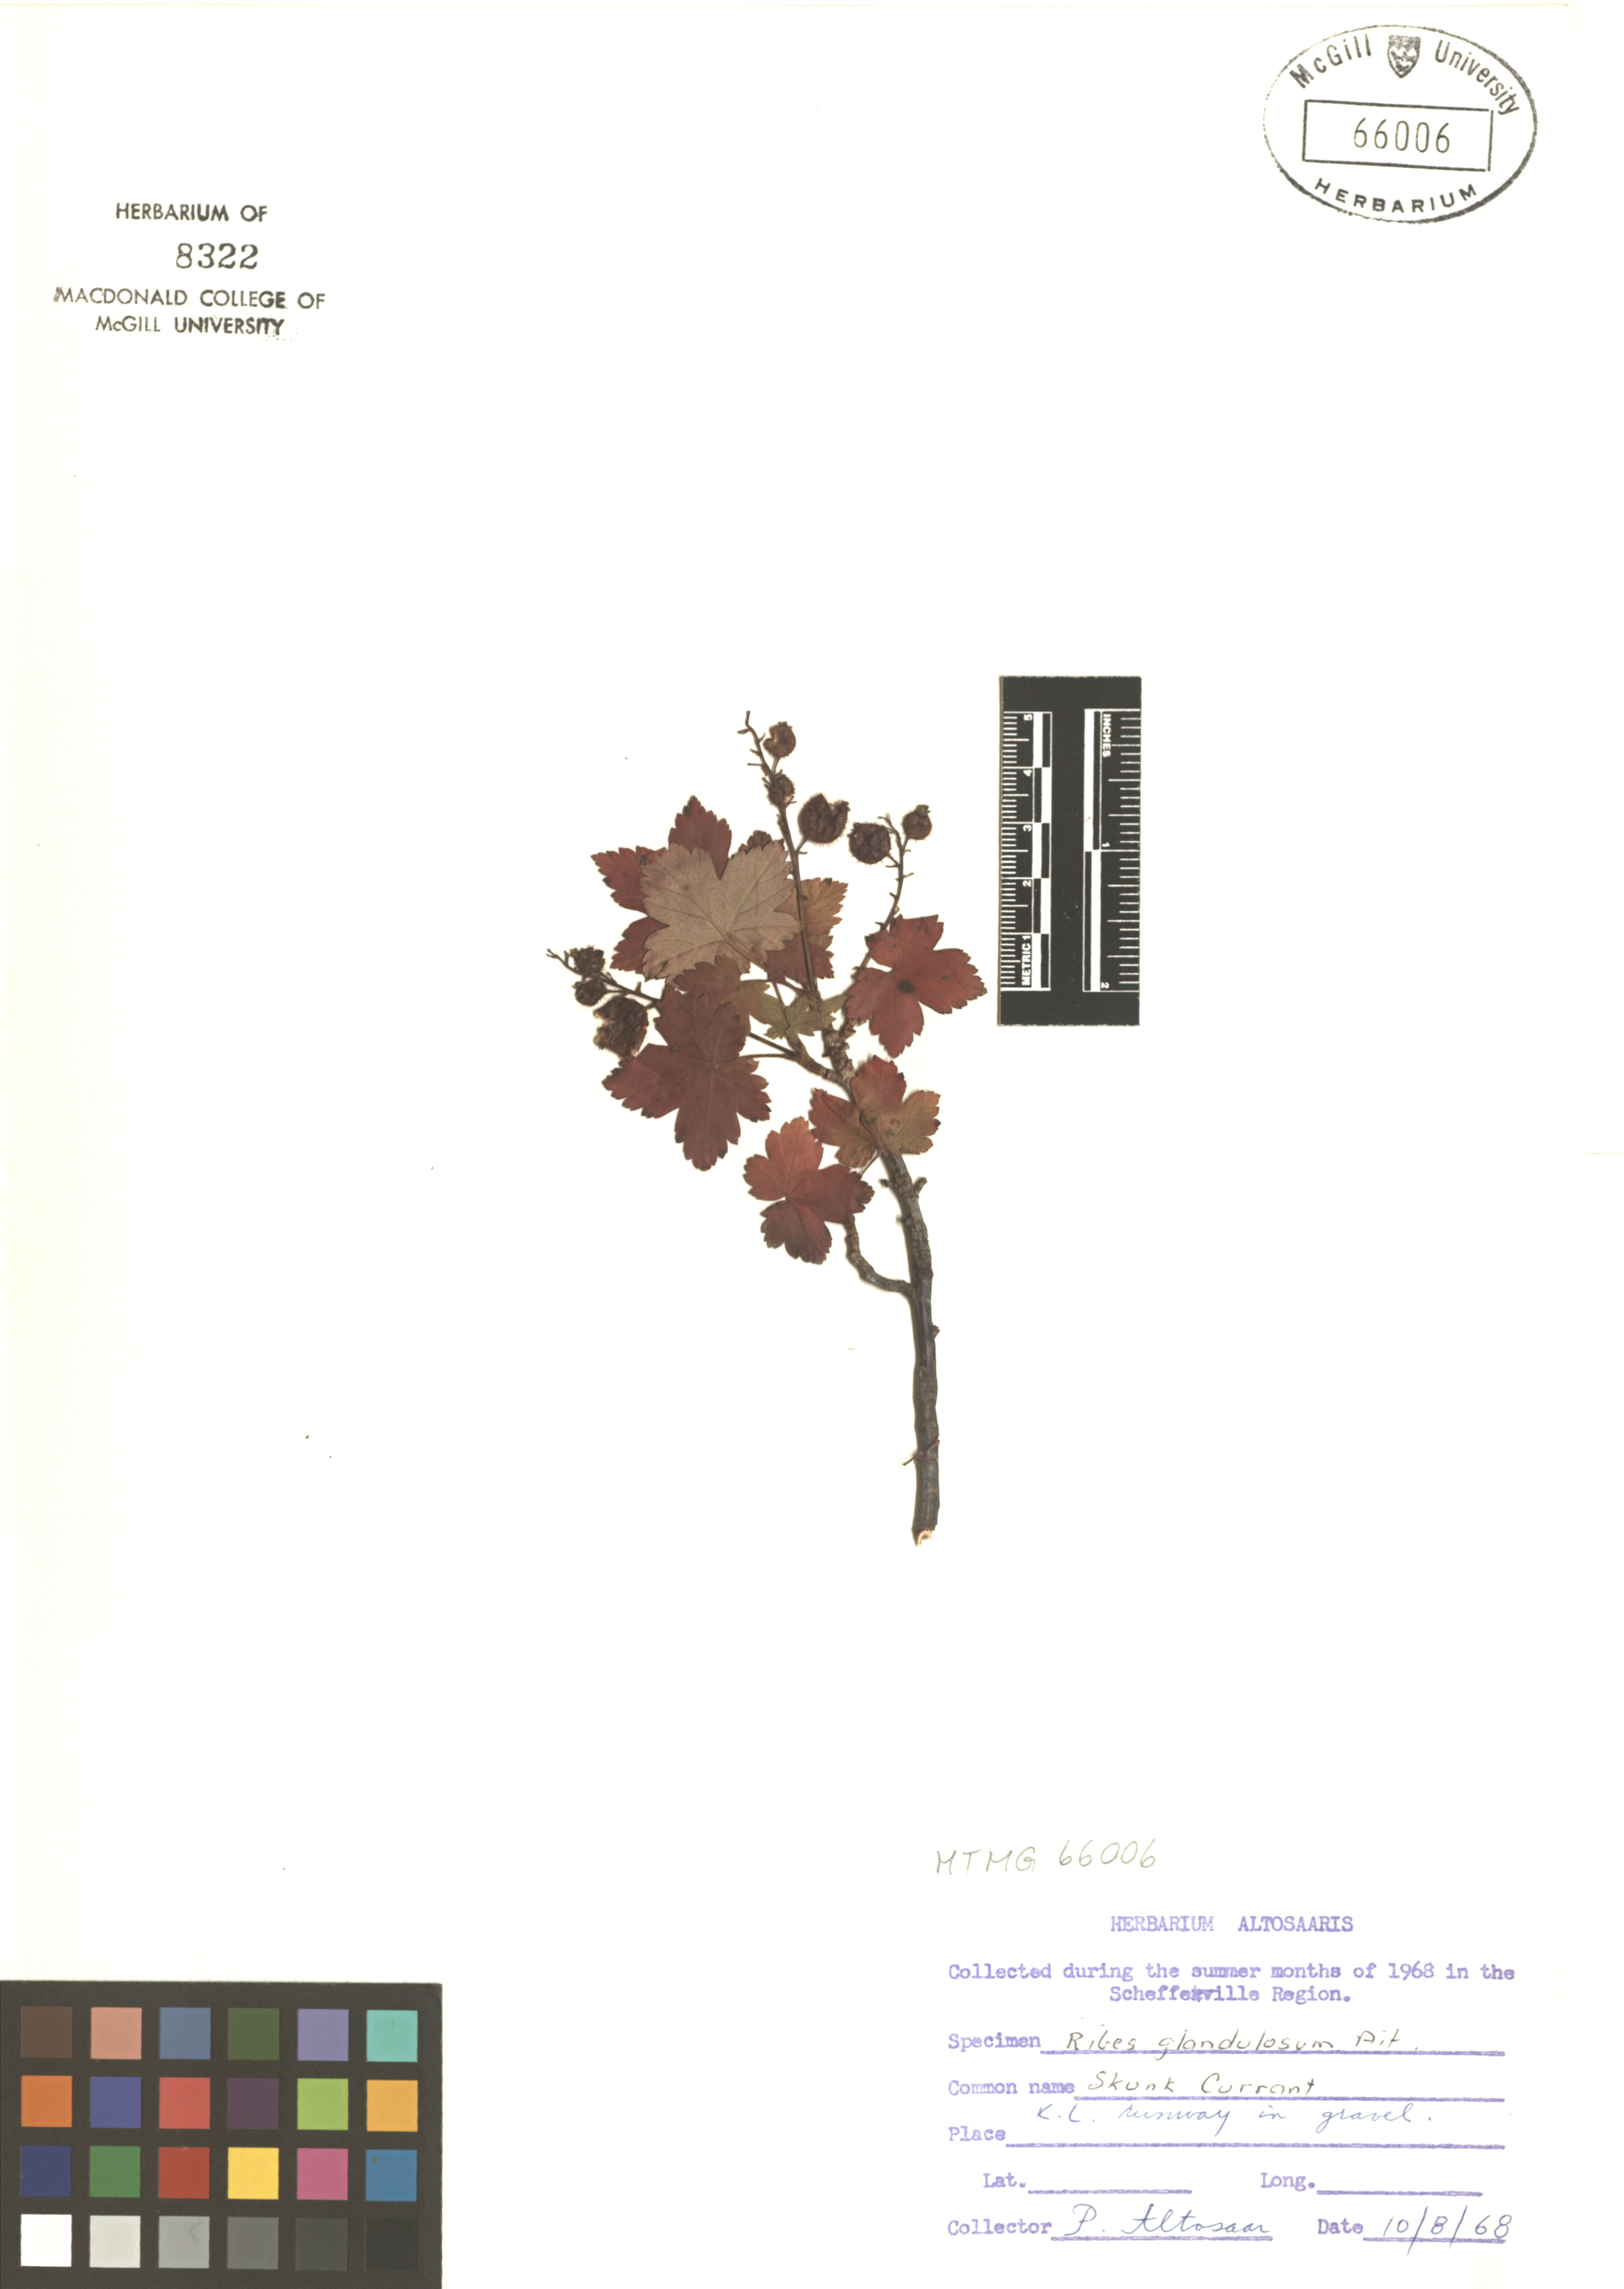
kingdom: Plantae
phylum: Tracheophyta
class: Magnoliopsida
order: Saxifragales
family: Grossulariaceae
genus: Ribes
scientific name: Ribes glandulosum
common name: Skunk currant
